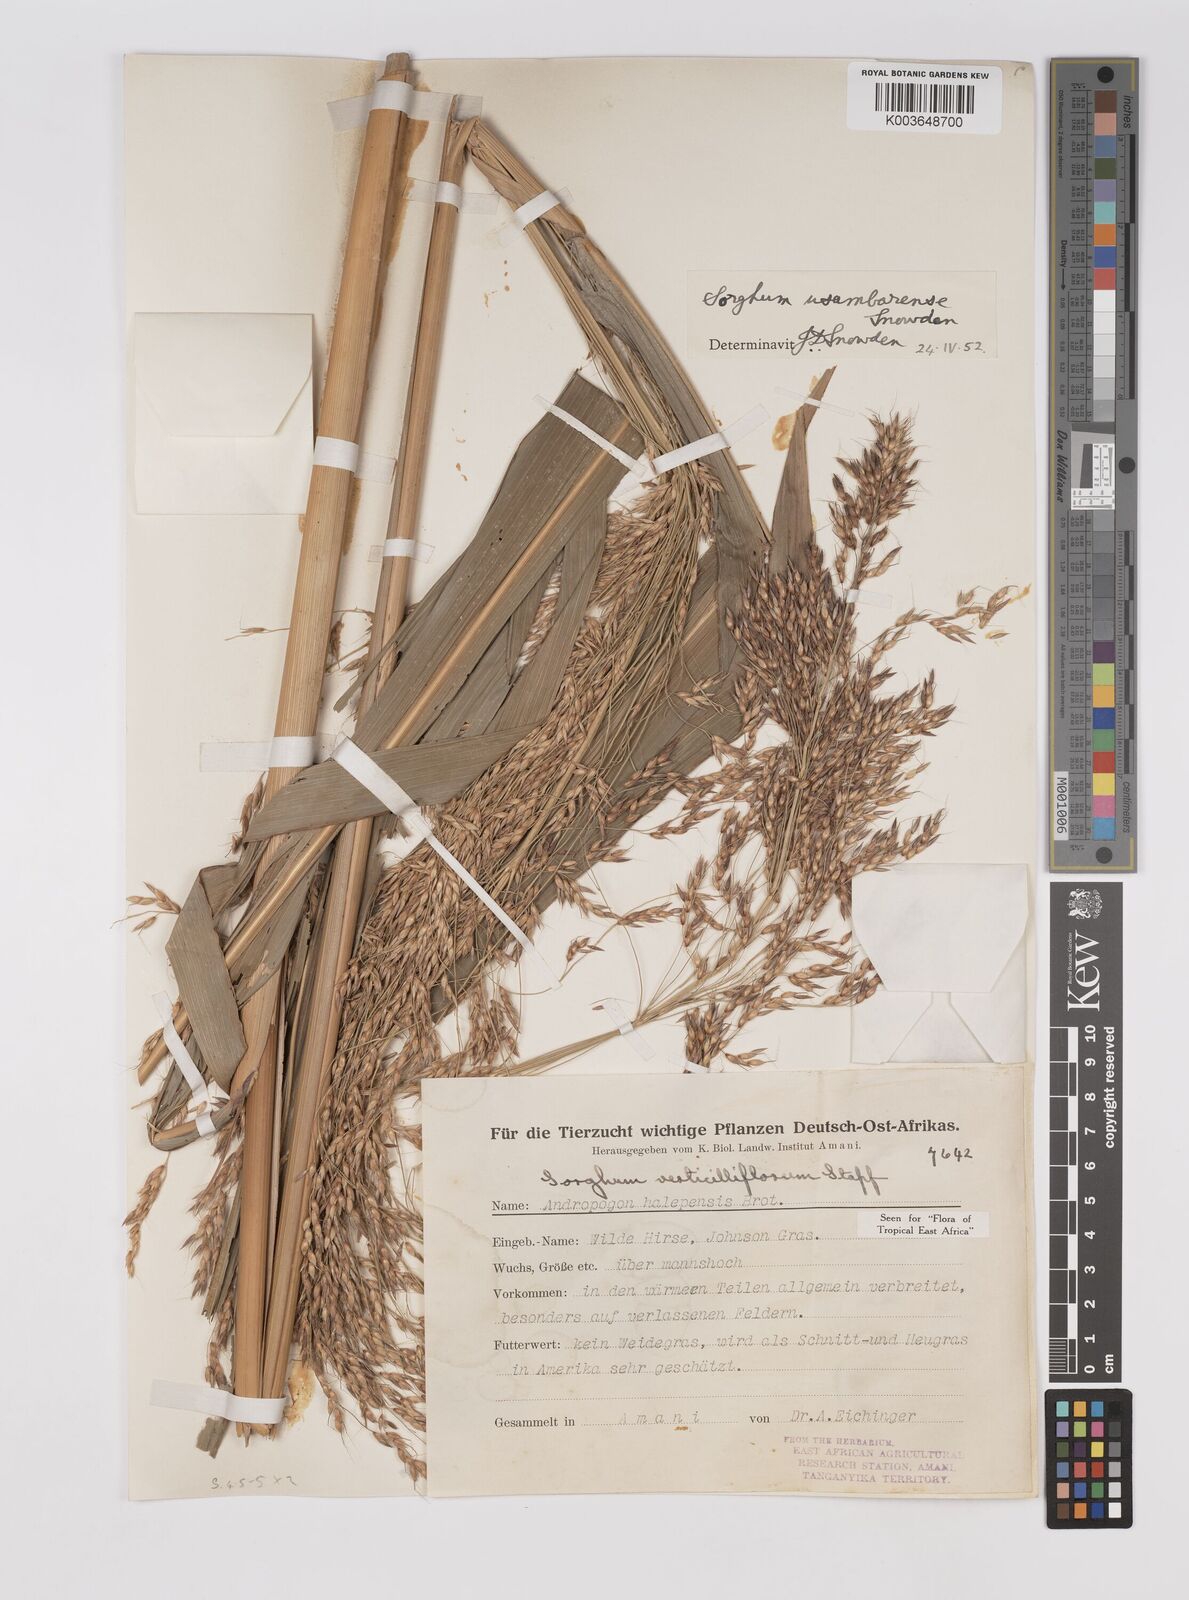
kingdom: Plantae
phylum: Tracheophyta
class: Liliopsida
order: Poales
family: Poaceae
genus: Sorghum
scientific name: Sorghum arundinaceum
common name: Sorghum
